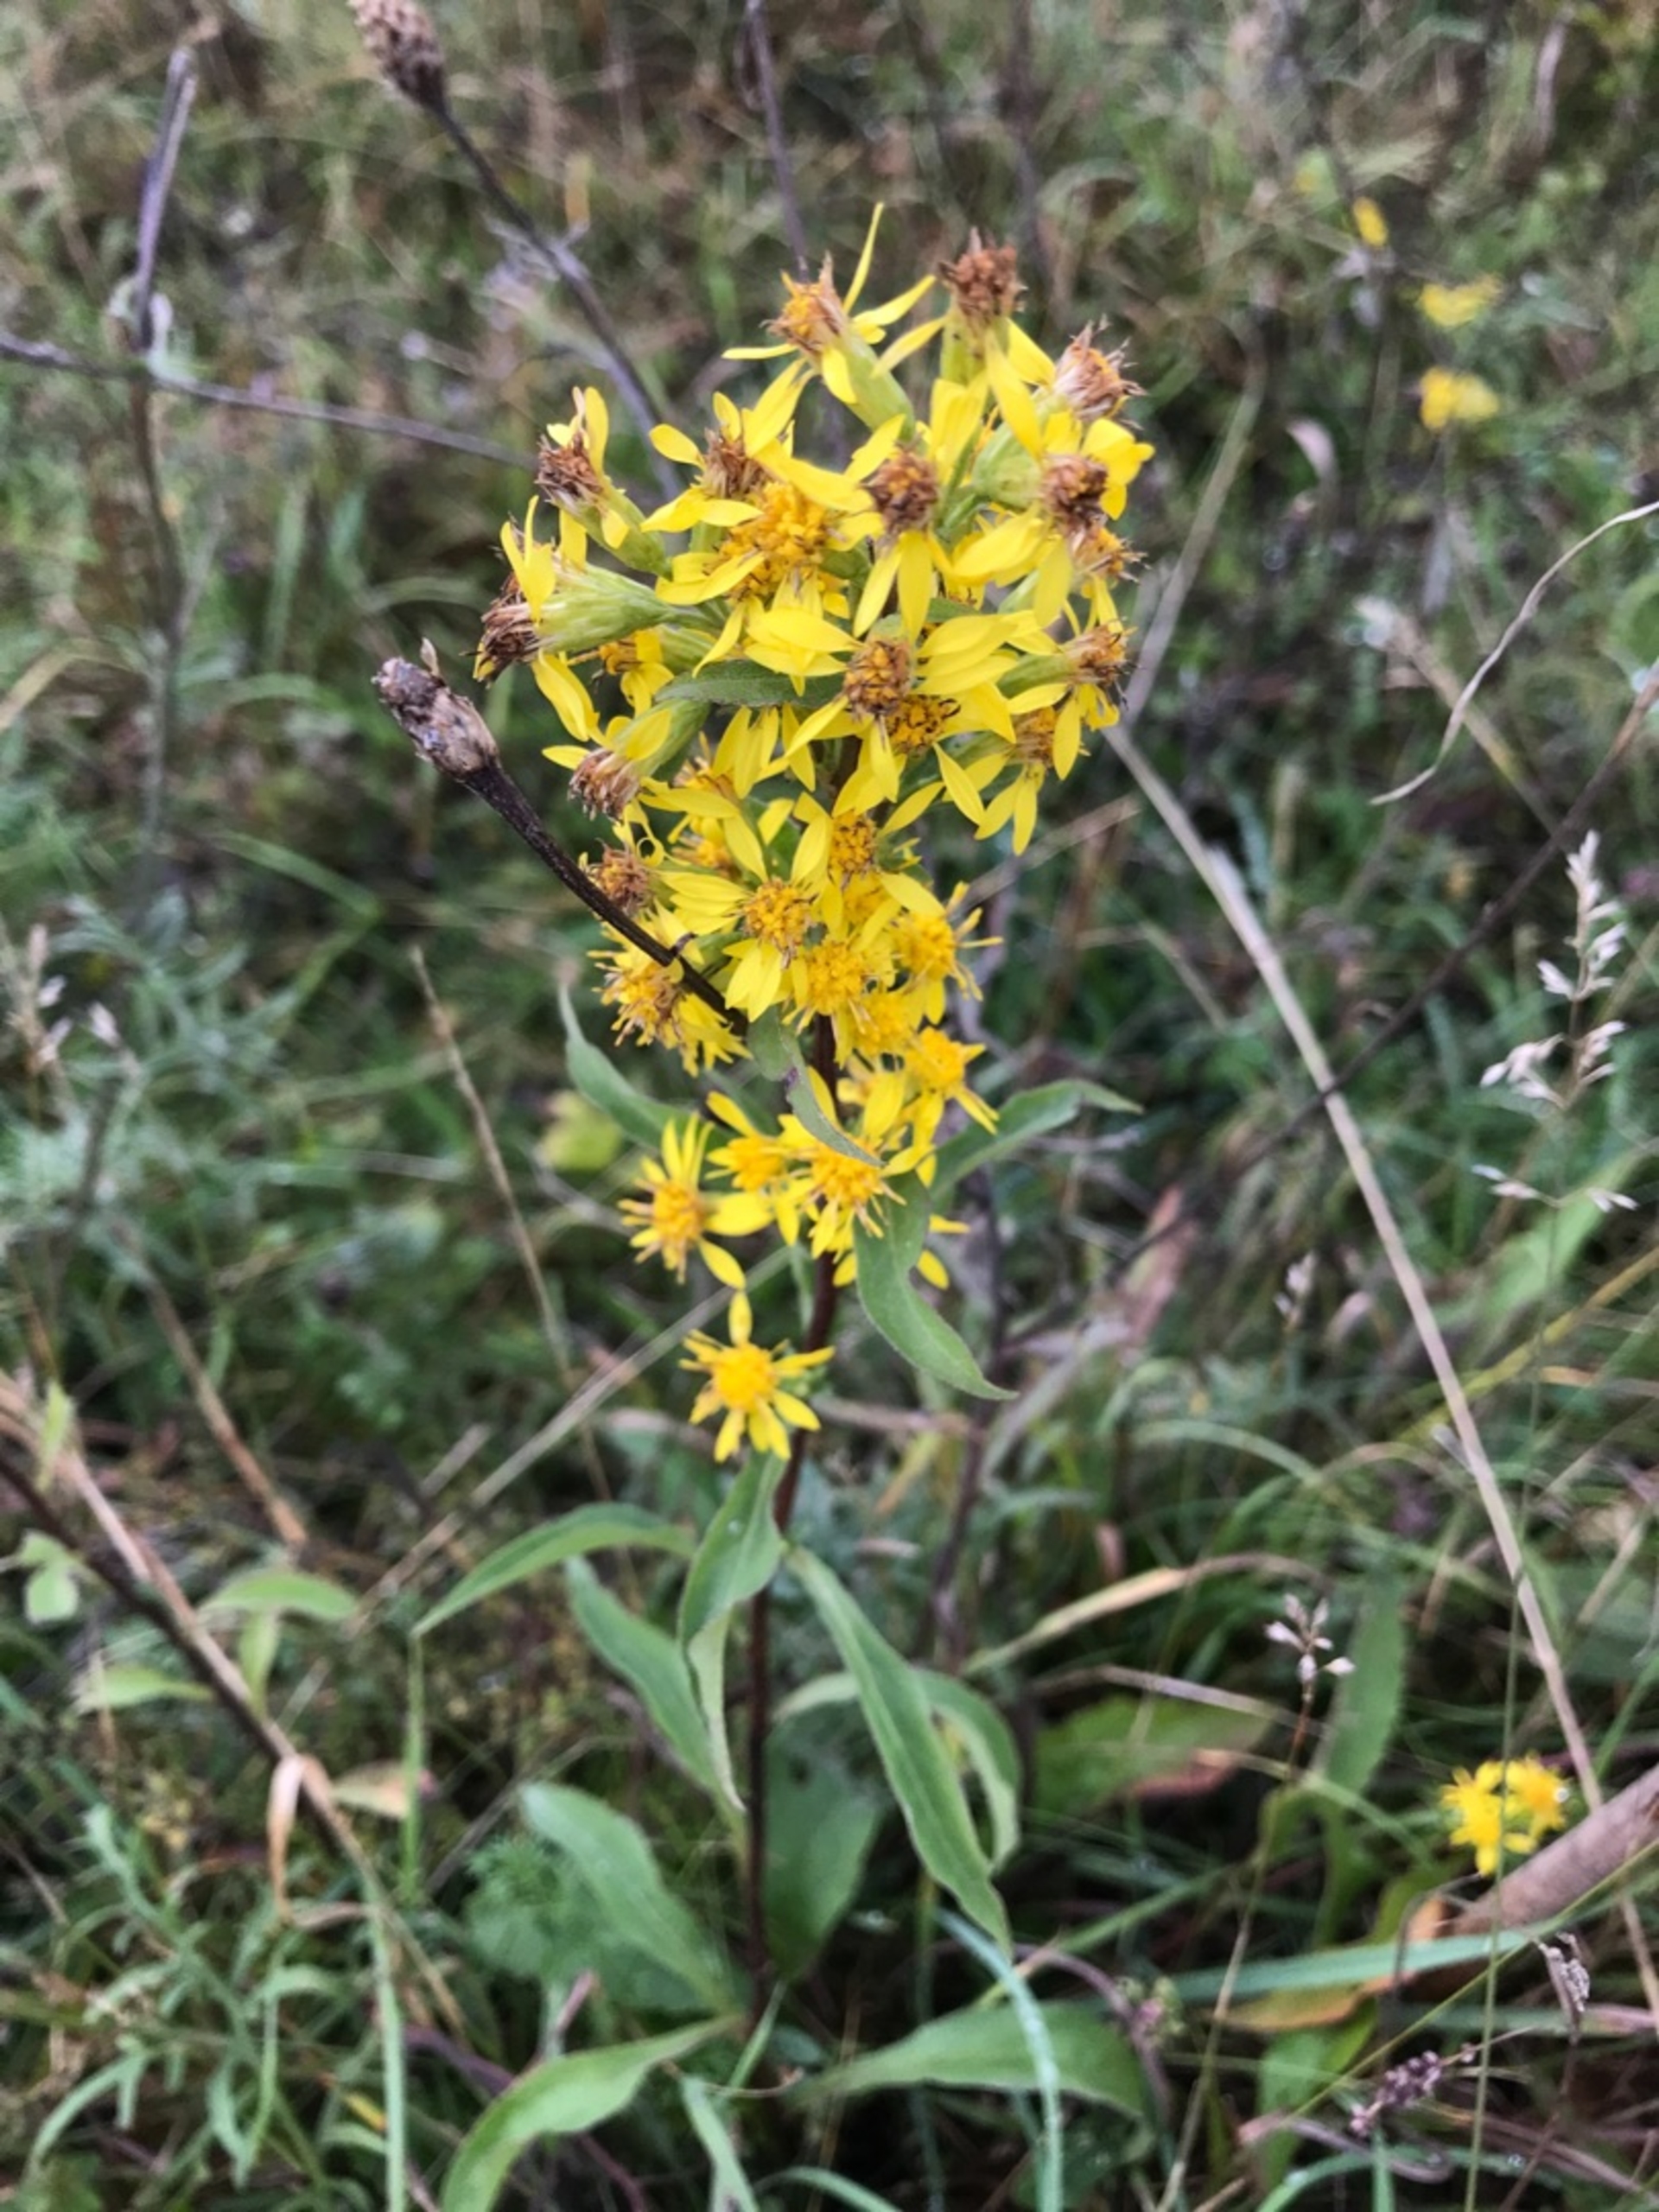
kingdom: Plantae
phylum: Tracheophyta
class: Magnoliopsida
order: Asterales
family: Asteraceae
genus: Solidago
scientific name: Solidago virgaurea
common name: Almindelig gyldenris
